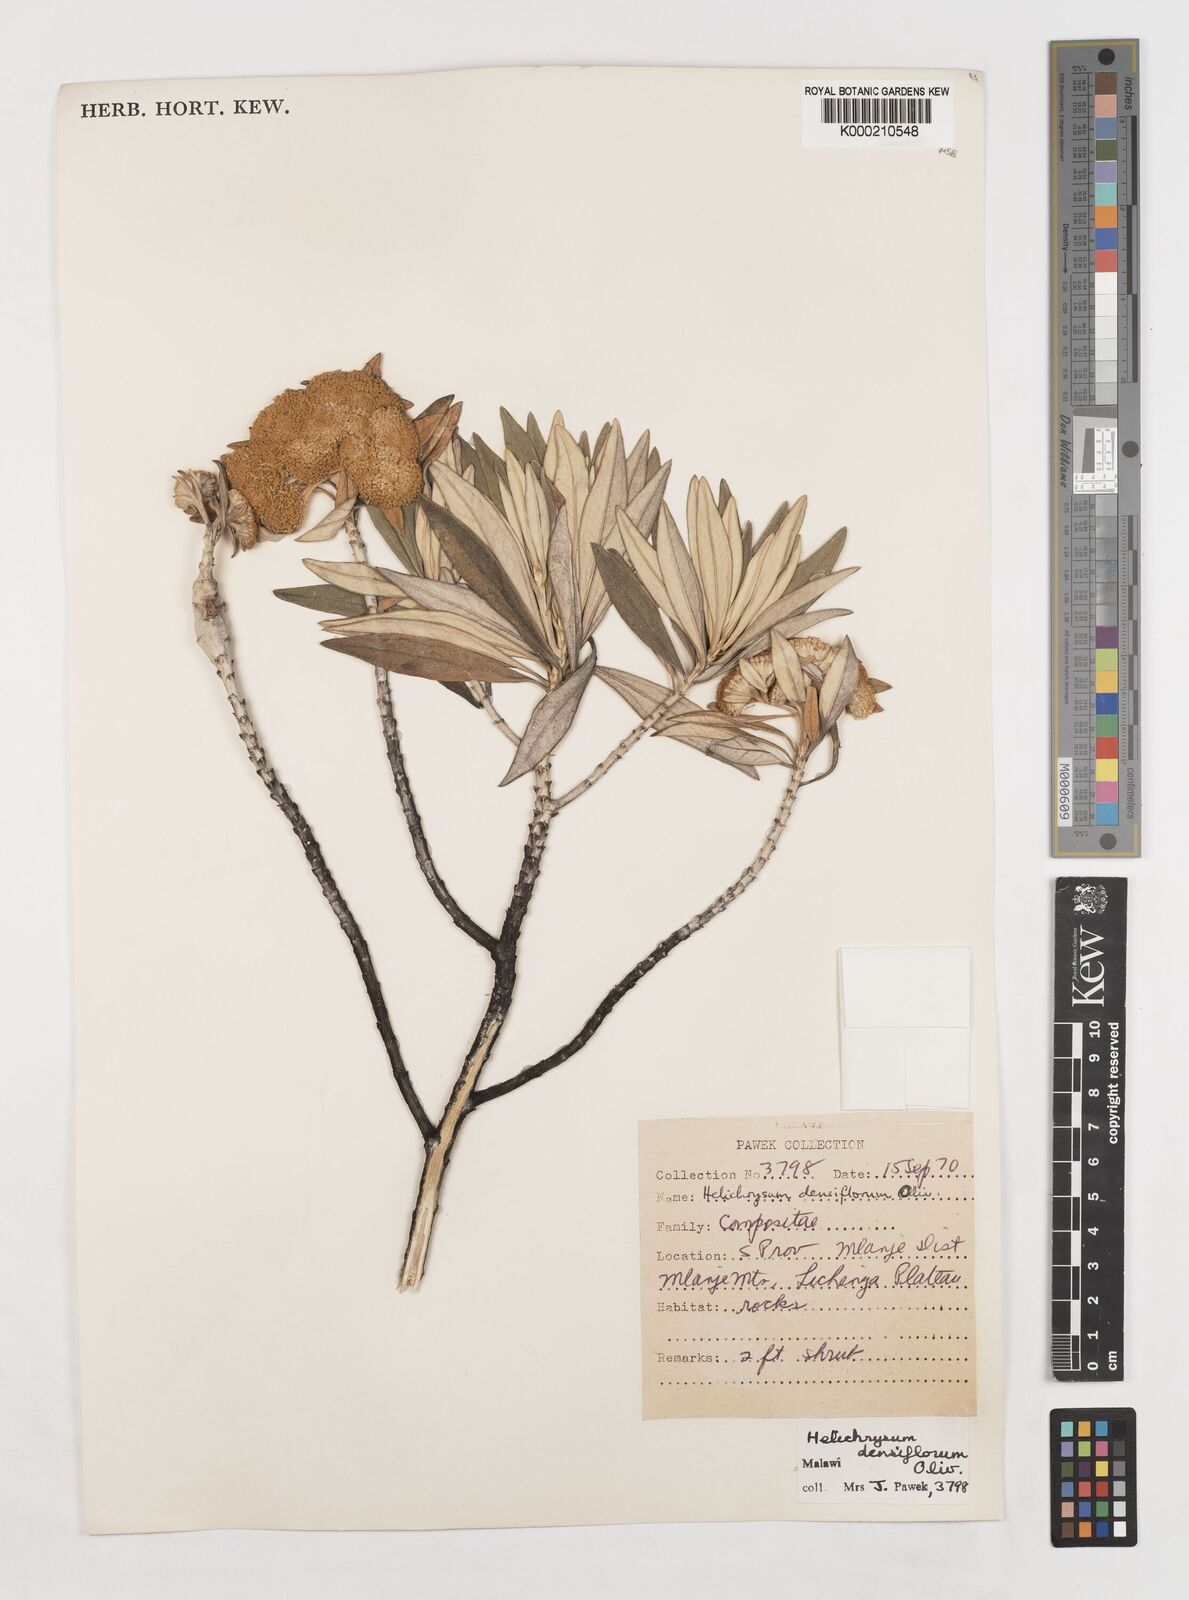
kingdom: Plantae
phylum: Tracheophyta
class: Magnoliopsida
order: Asterales
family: Asteraceae
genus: Helichrysum
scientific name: Helichrysum densiflorum
